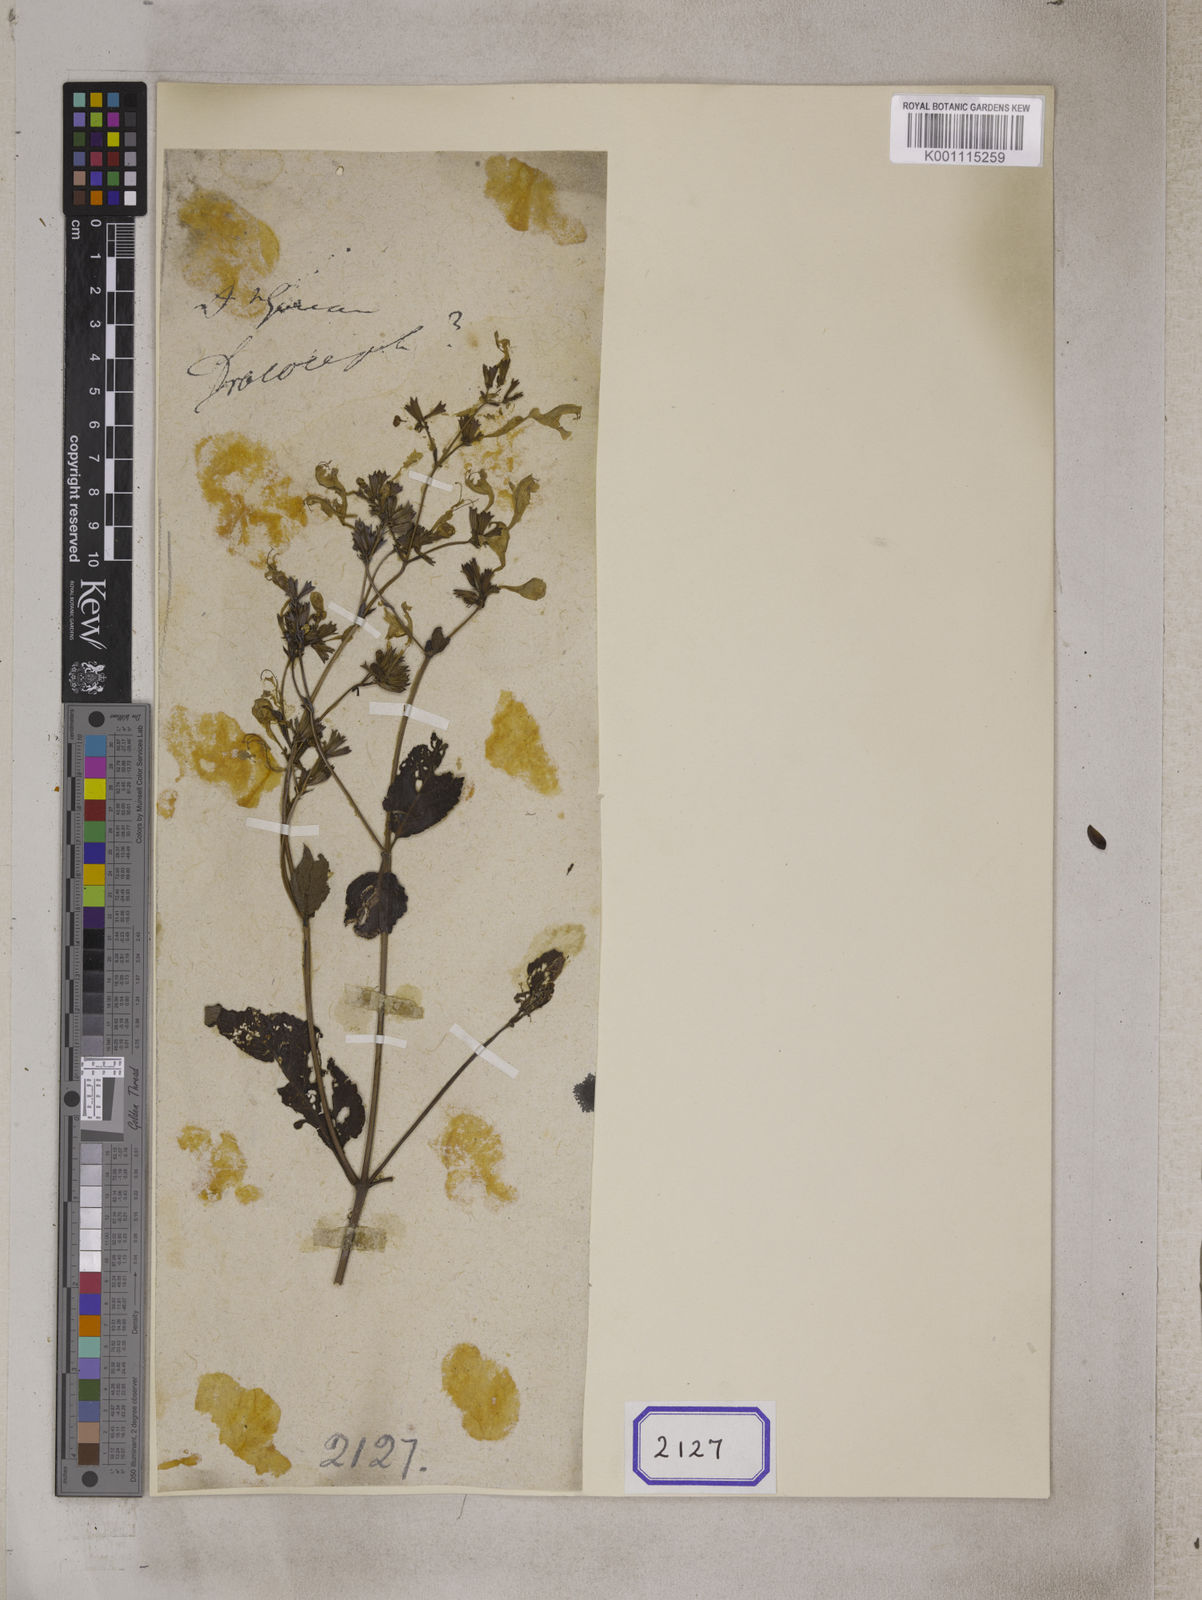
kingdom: Plantae
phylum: Tracheophyta
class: Magnoliopsida
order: Lamiales
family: Lamiaceae
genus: Nepeta
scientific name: Nepeta govaniana
